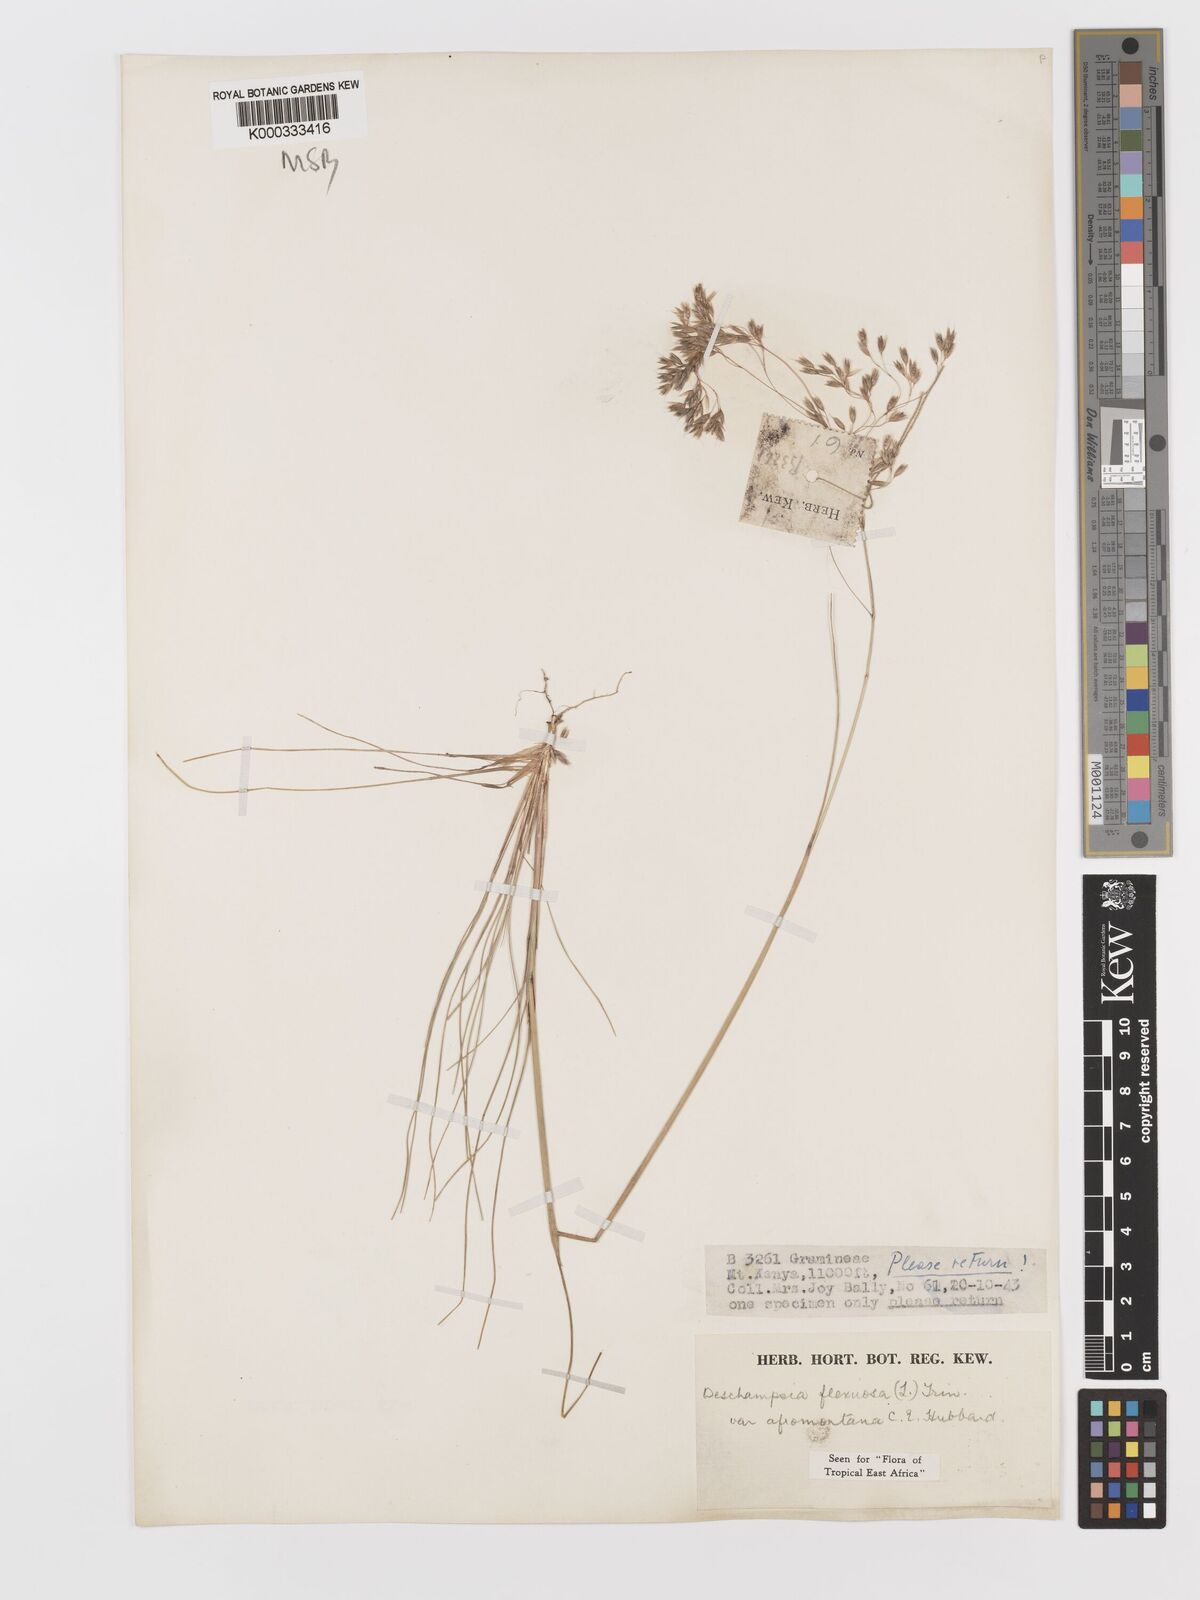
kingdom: Plantae
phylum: Tracheophyta
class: Liliopsida
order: Poales
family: Poaceae
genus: Avenella
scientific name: Avenella flexuosa
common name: Wavy hairgrass
